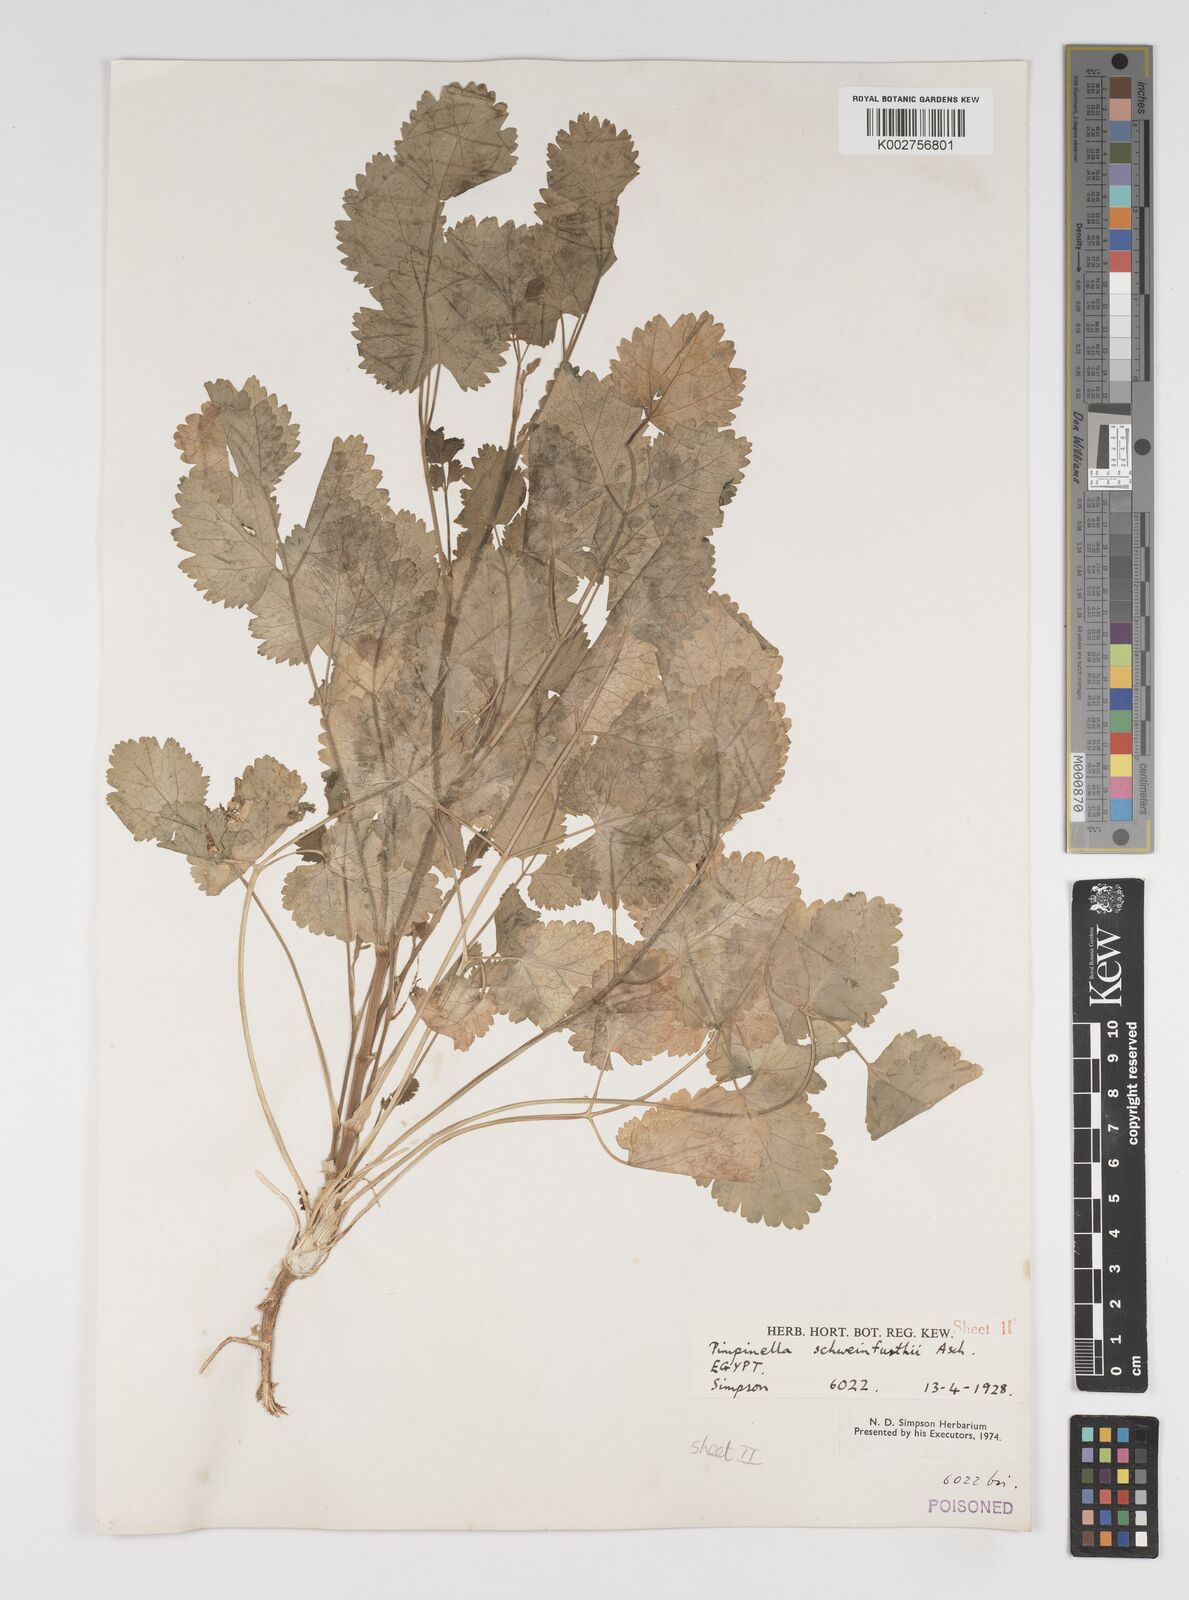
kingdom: Plantae
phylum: Tracheophyta
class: Magnoliopsida
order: Apiales
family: Apiaceae
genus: Pimpinella
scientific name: Pimpinella schweinfurthii
